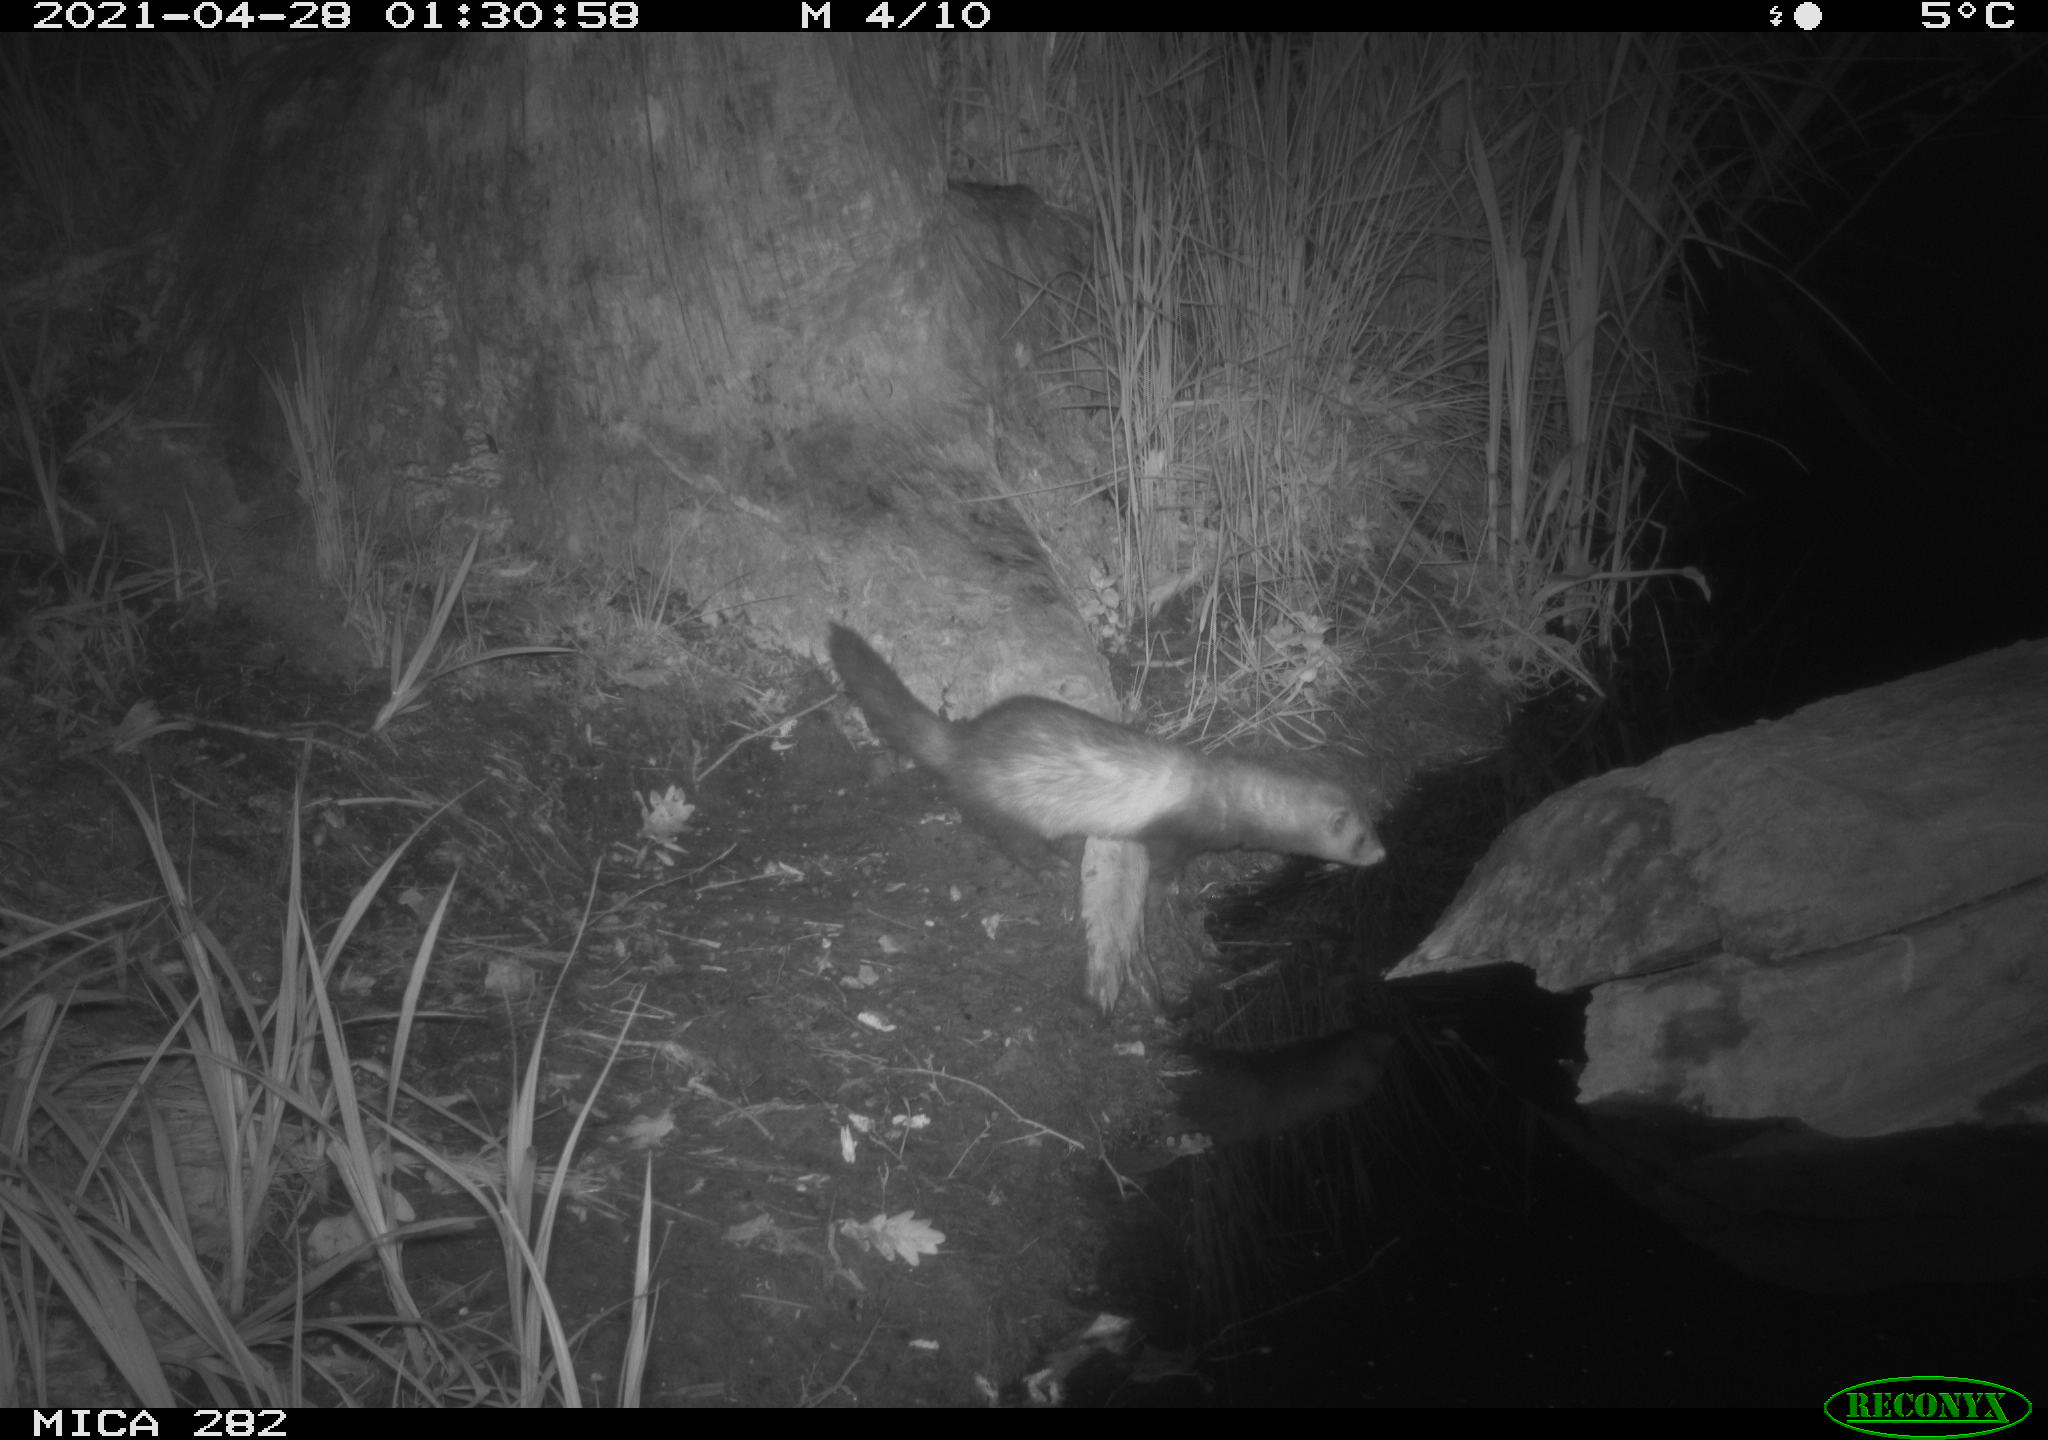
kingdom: Animalia
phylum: Chordata
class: Mammalia
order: Carnivora
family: Mustelidae
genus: Mustela
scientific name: Mustela putorius
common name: European polecat
